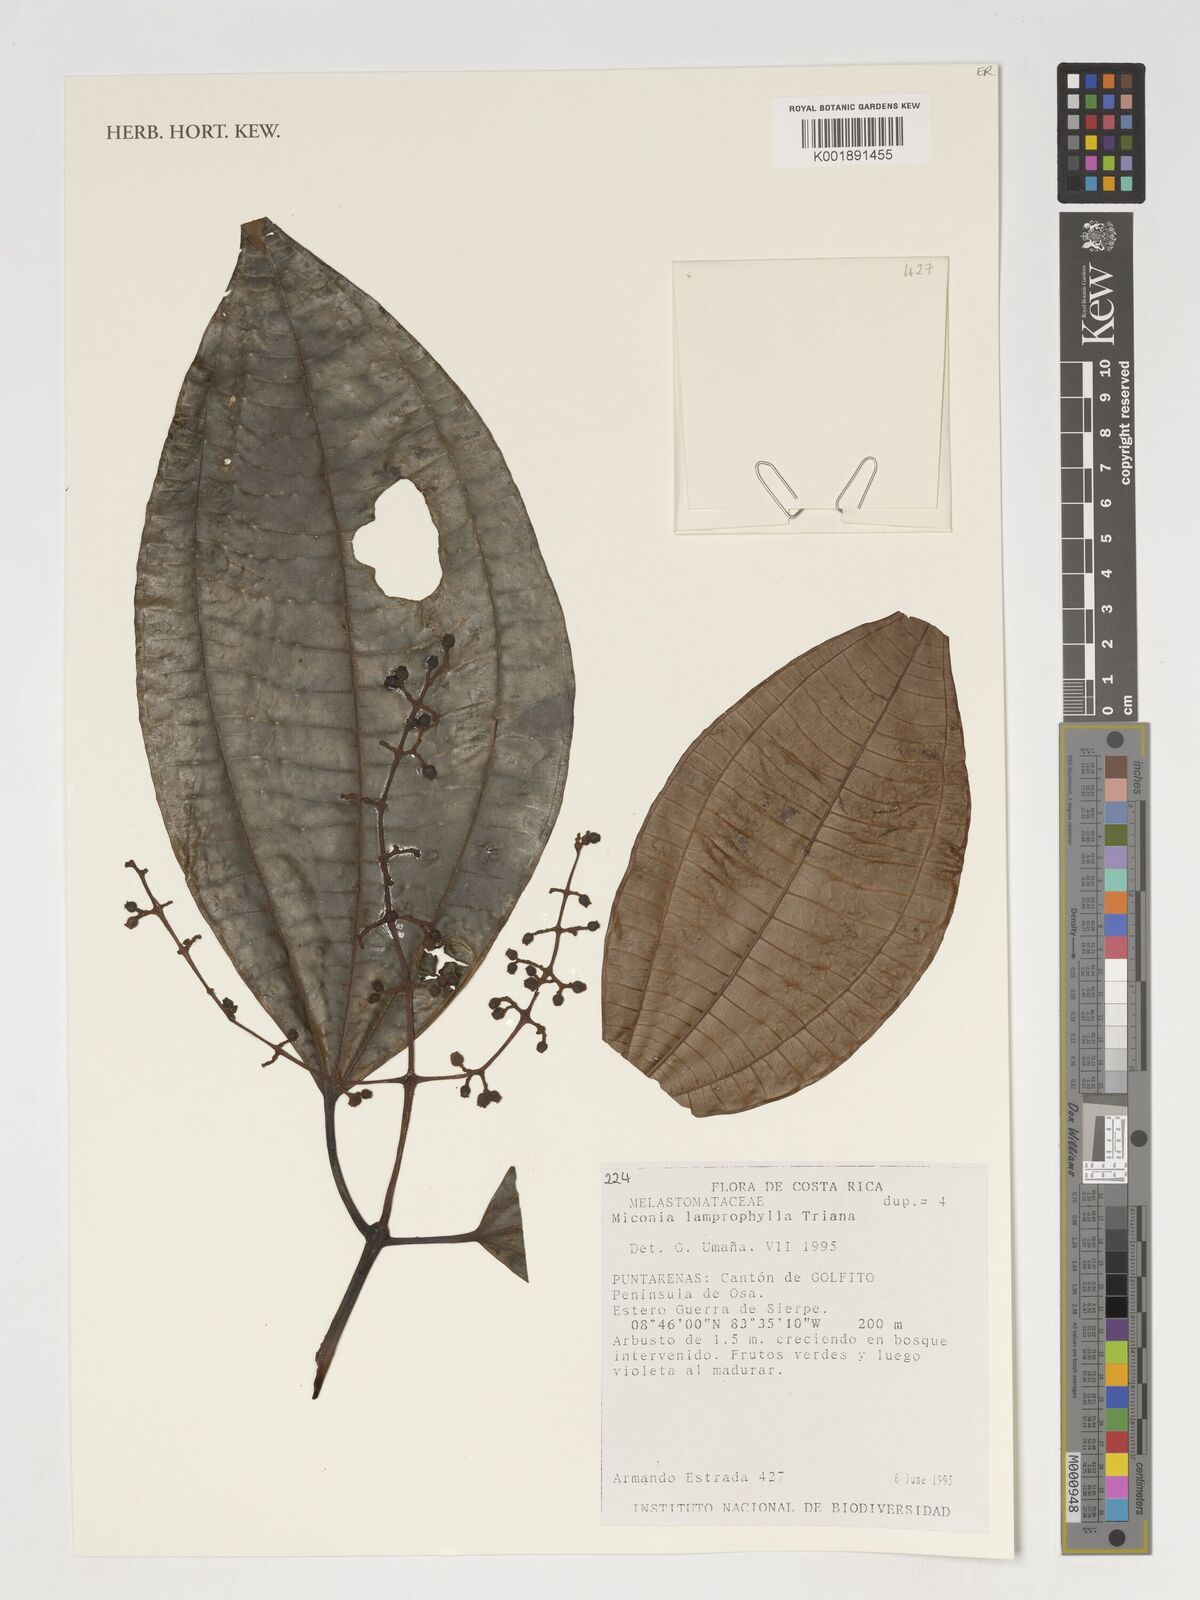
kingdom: Plantae
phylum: Tracheophyta
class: Magnoliopsida
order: Myrtales
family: Melastomataceae
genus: Miconia
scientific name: Miconia lamprophylla
